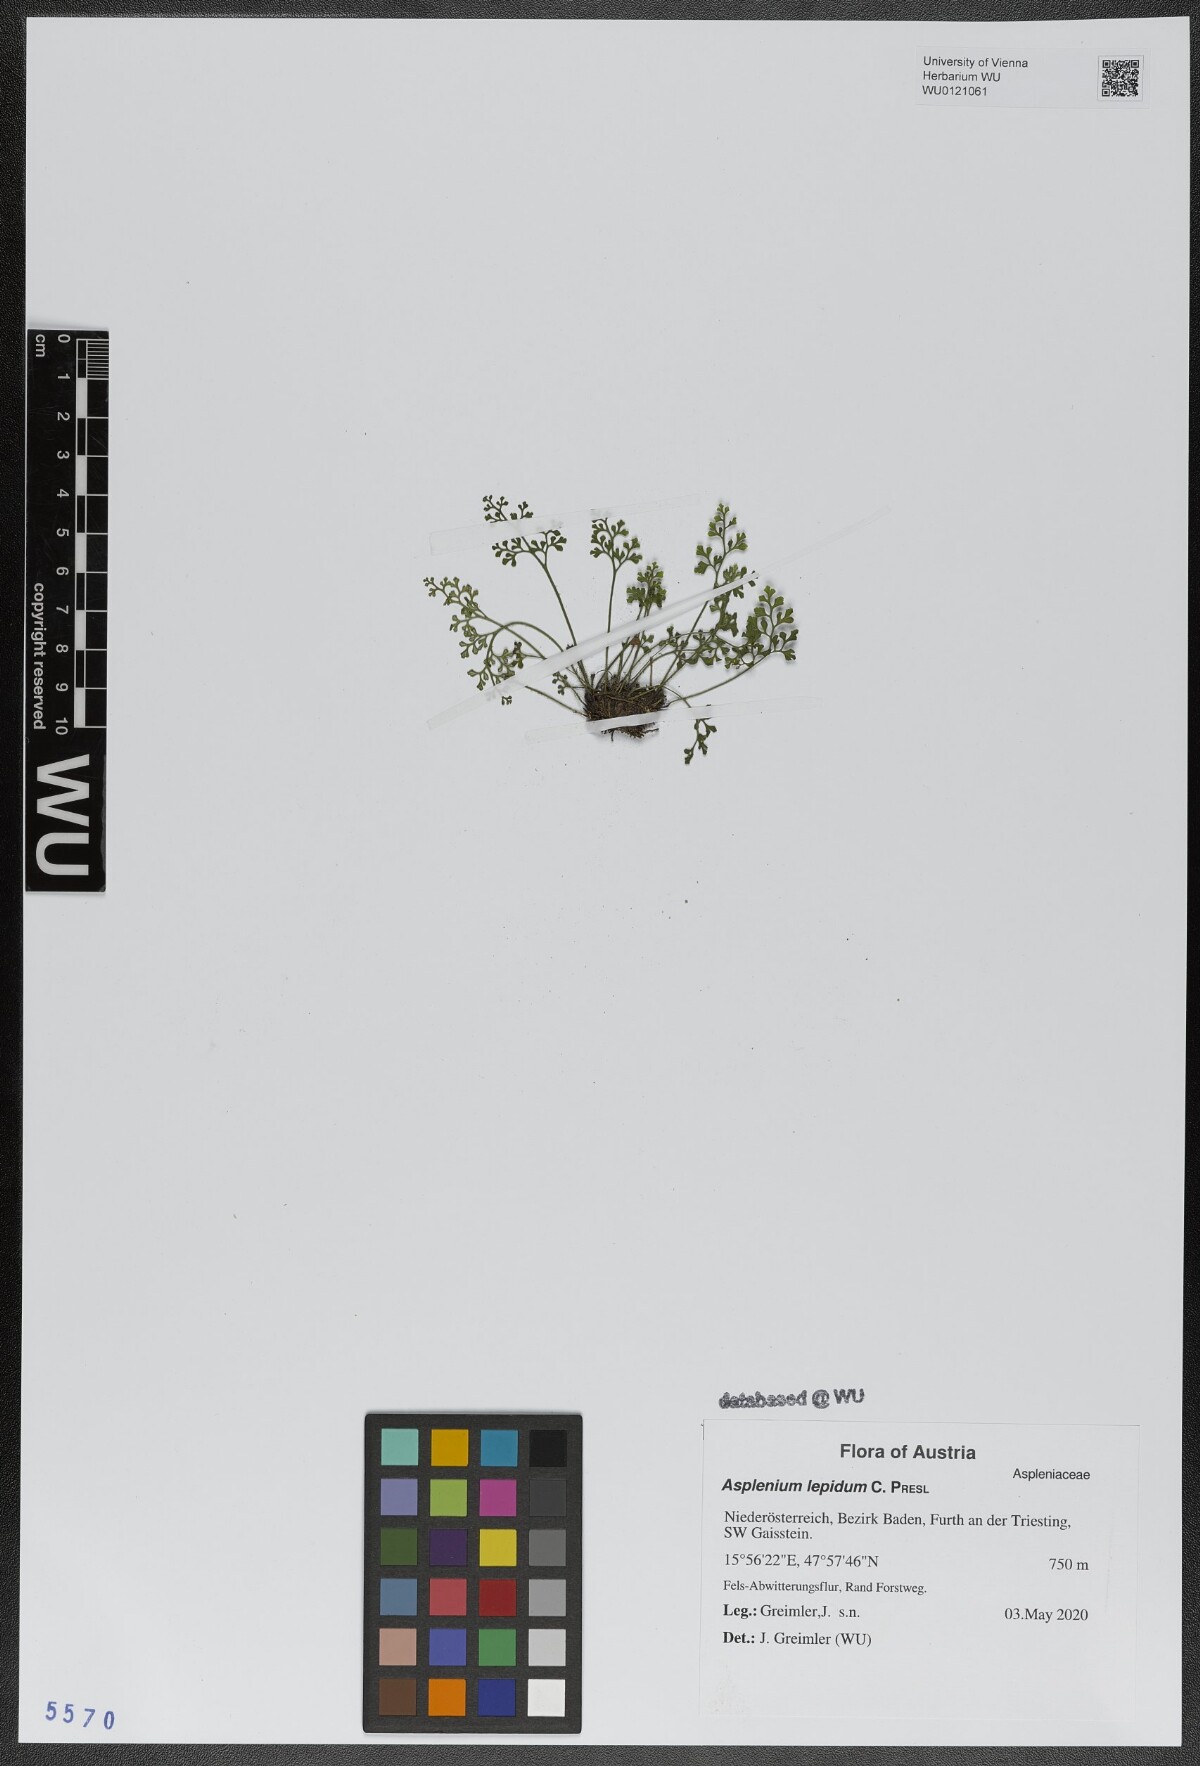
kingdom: Plantae
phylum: Tracheophyta
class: Polypodiopsida
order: Polypodiales
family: Aspleniaceae
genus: Asplenium
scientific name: Asplenium lepidum
